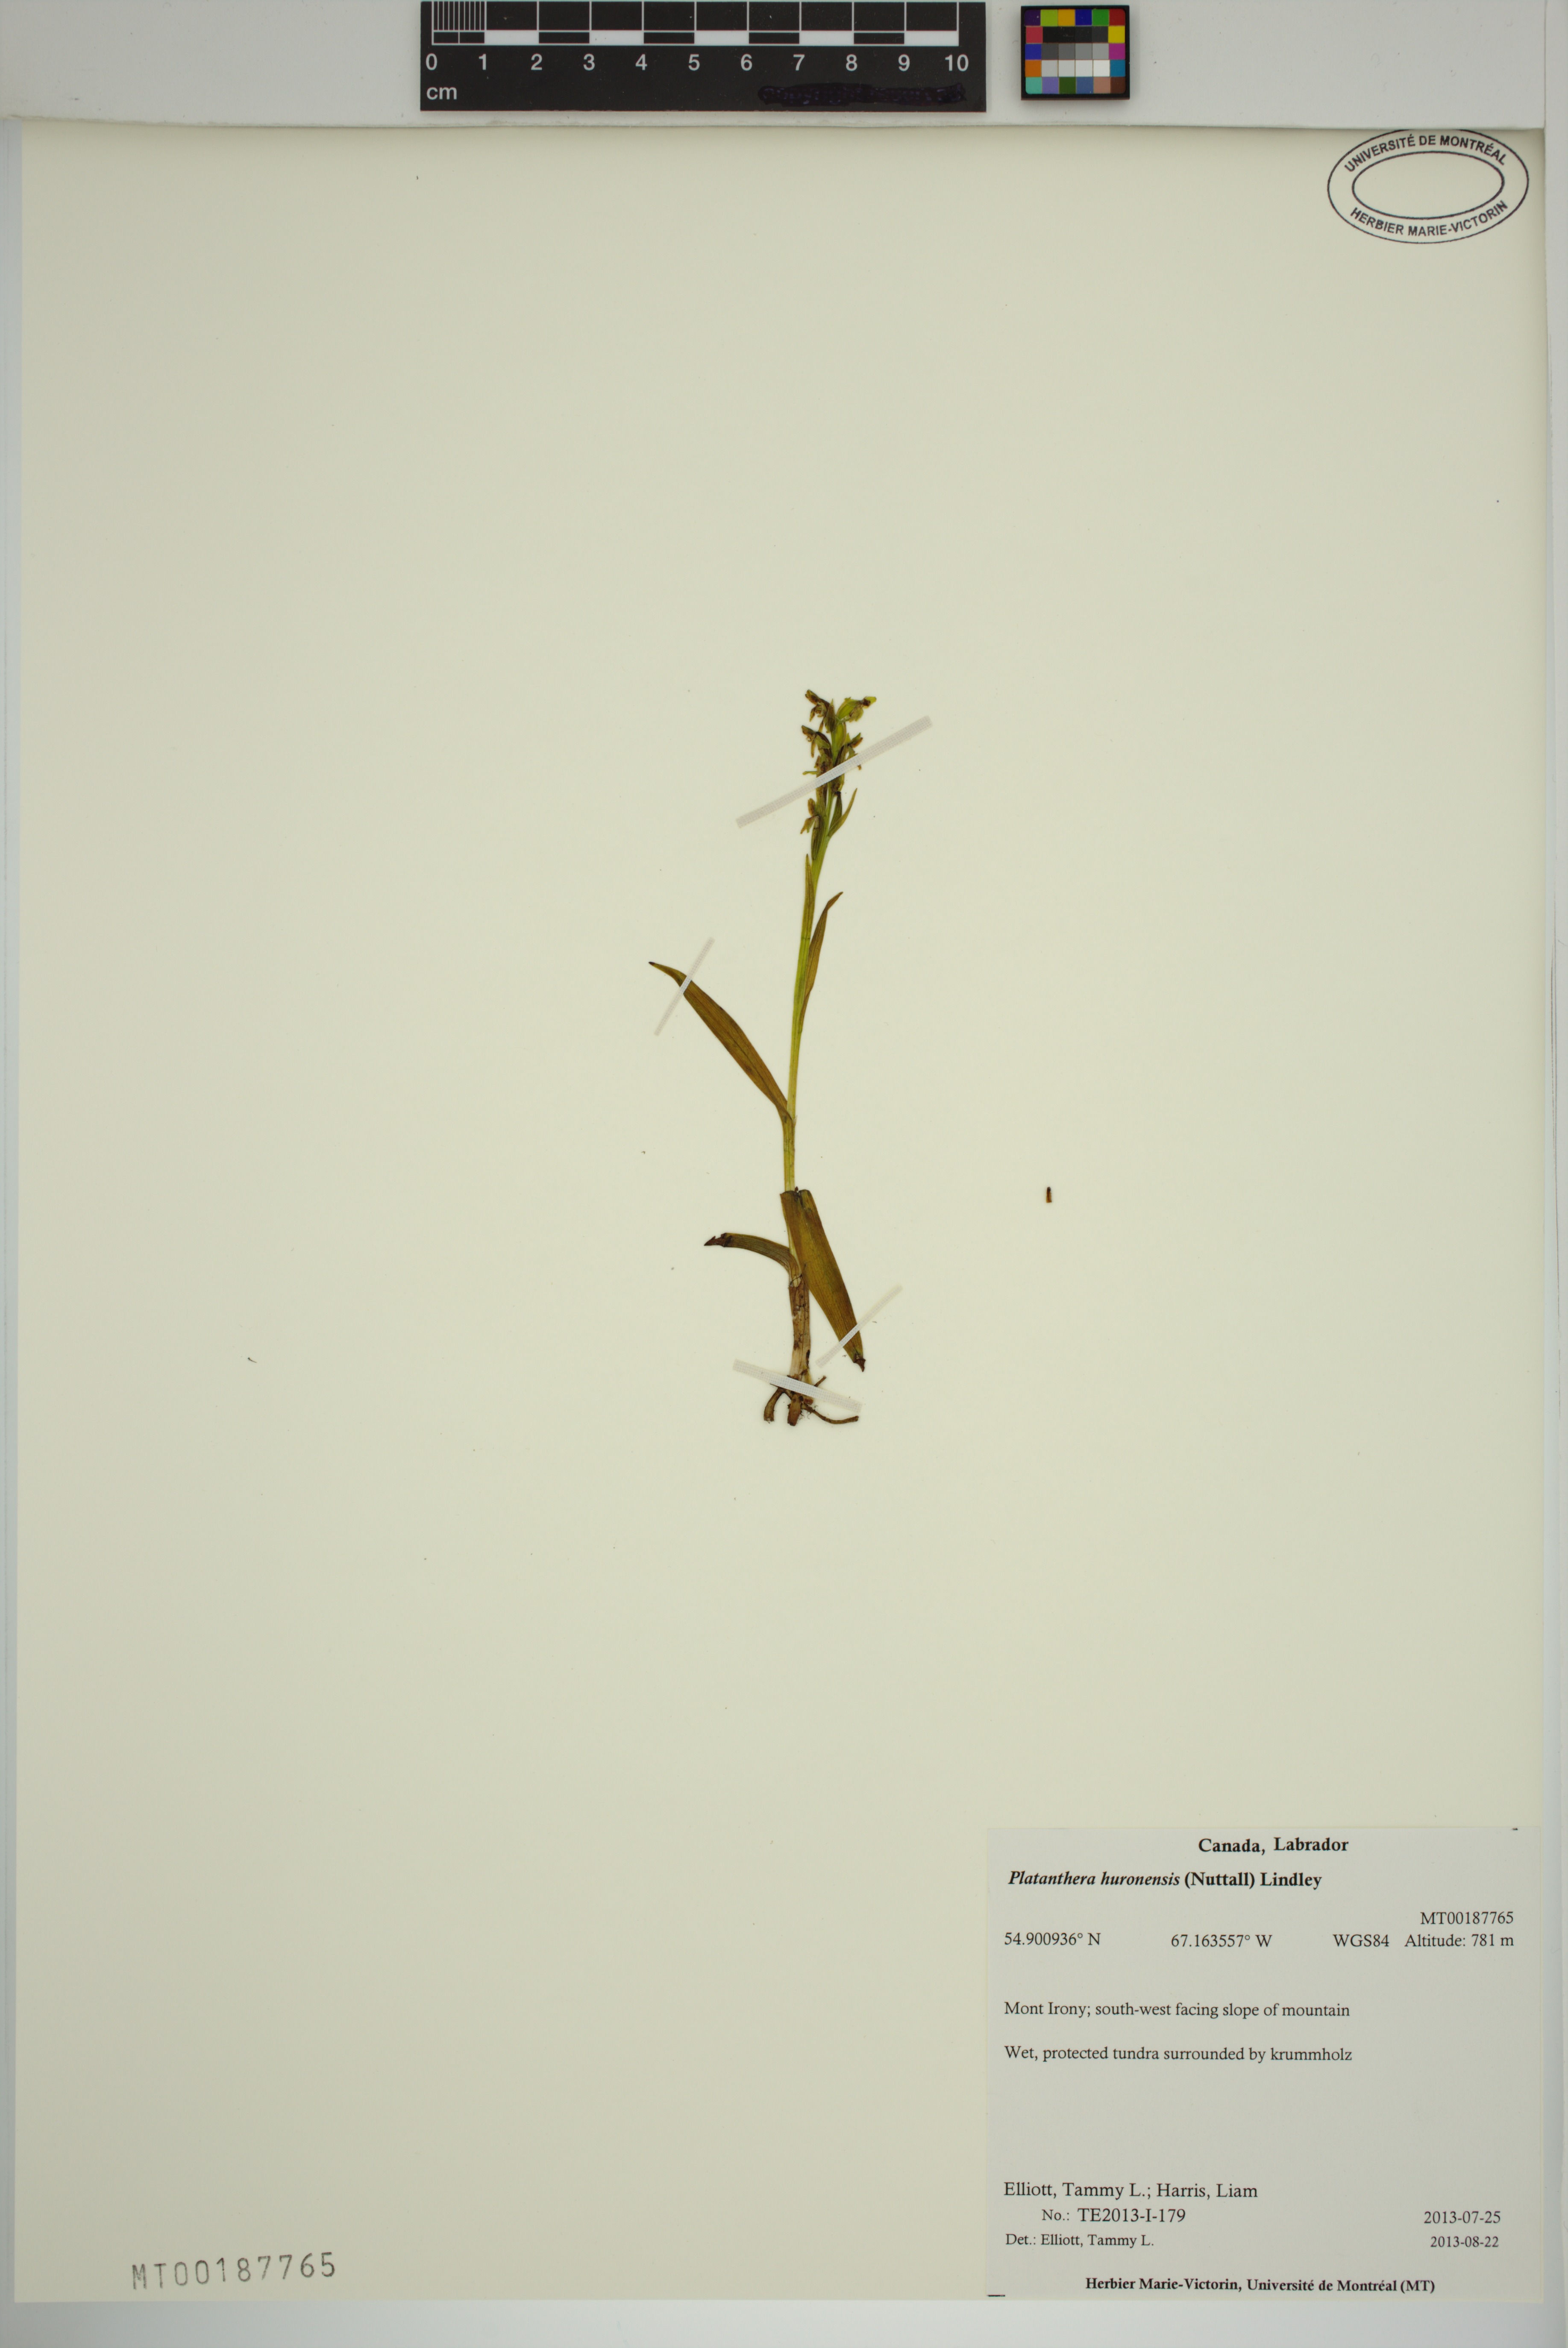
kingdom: Plantae
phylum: Tracheophyta
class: Liliopsida
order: Asparagales
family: Orchidaceae
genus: Platanthera
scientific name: Platanthera huronensis
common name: Fragrant green orchid
